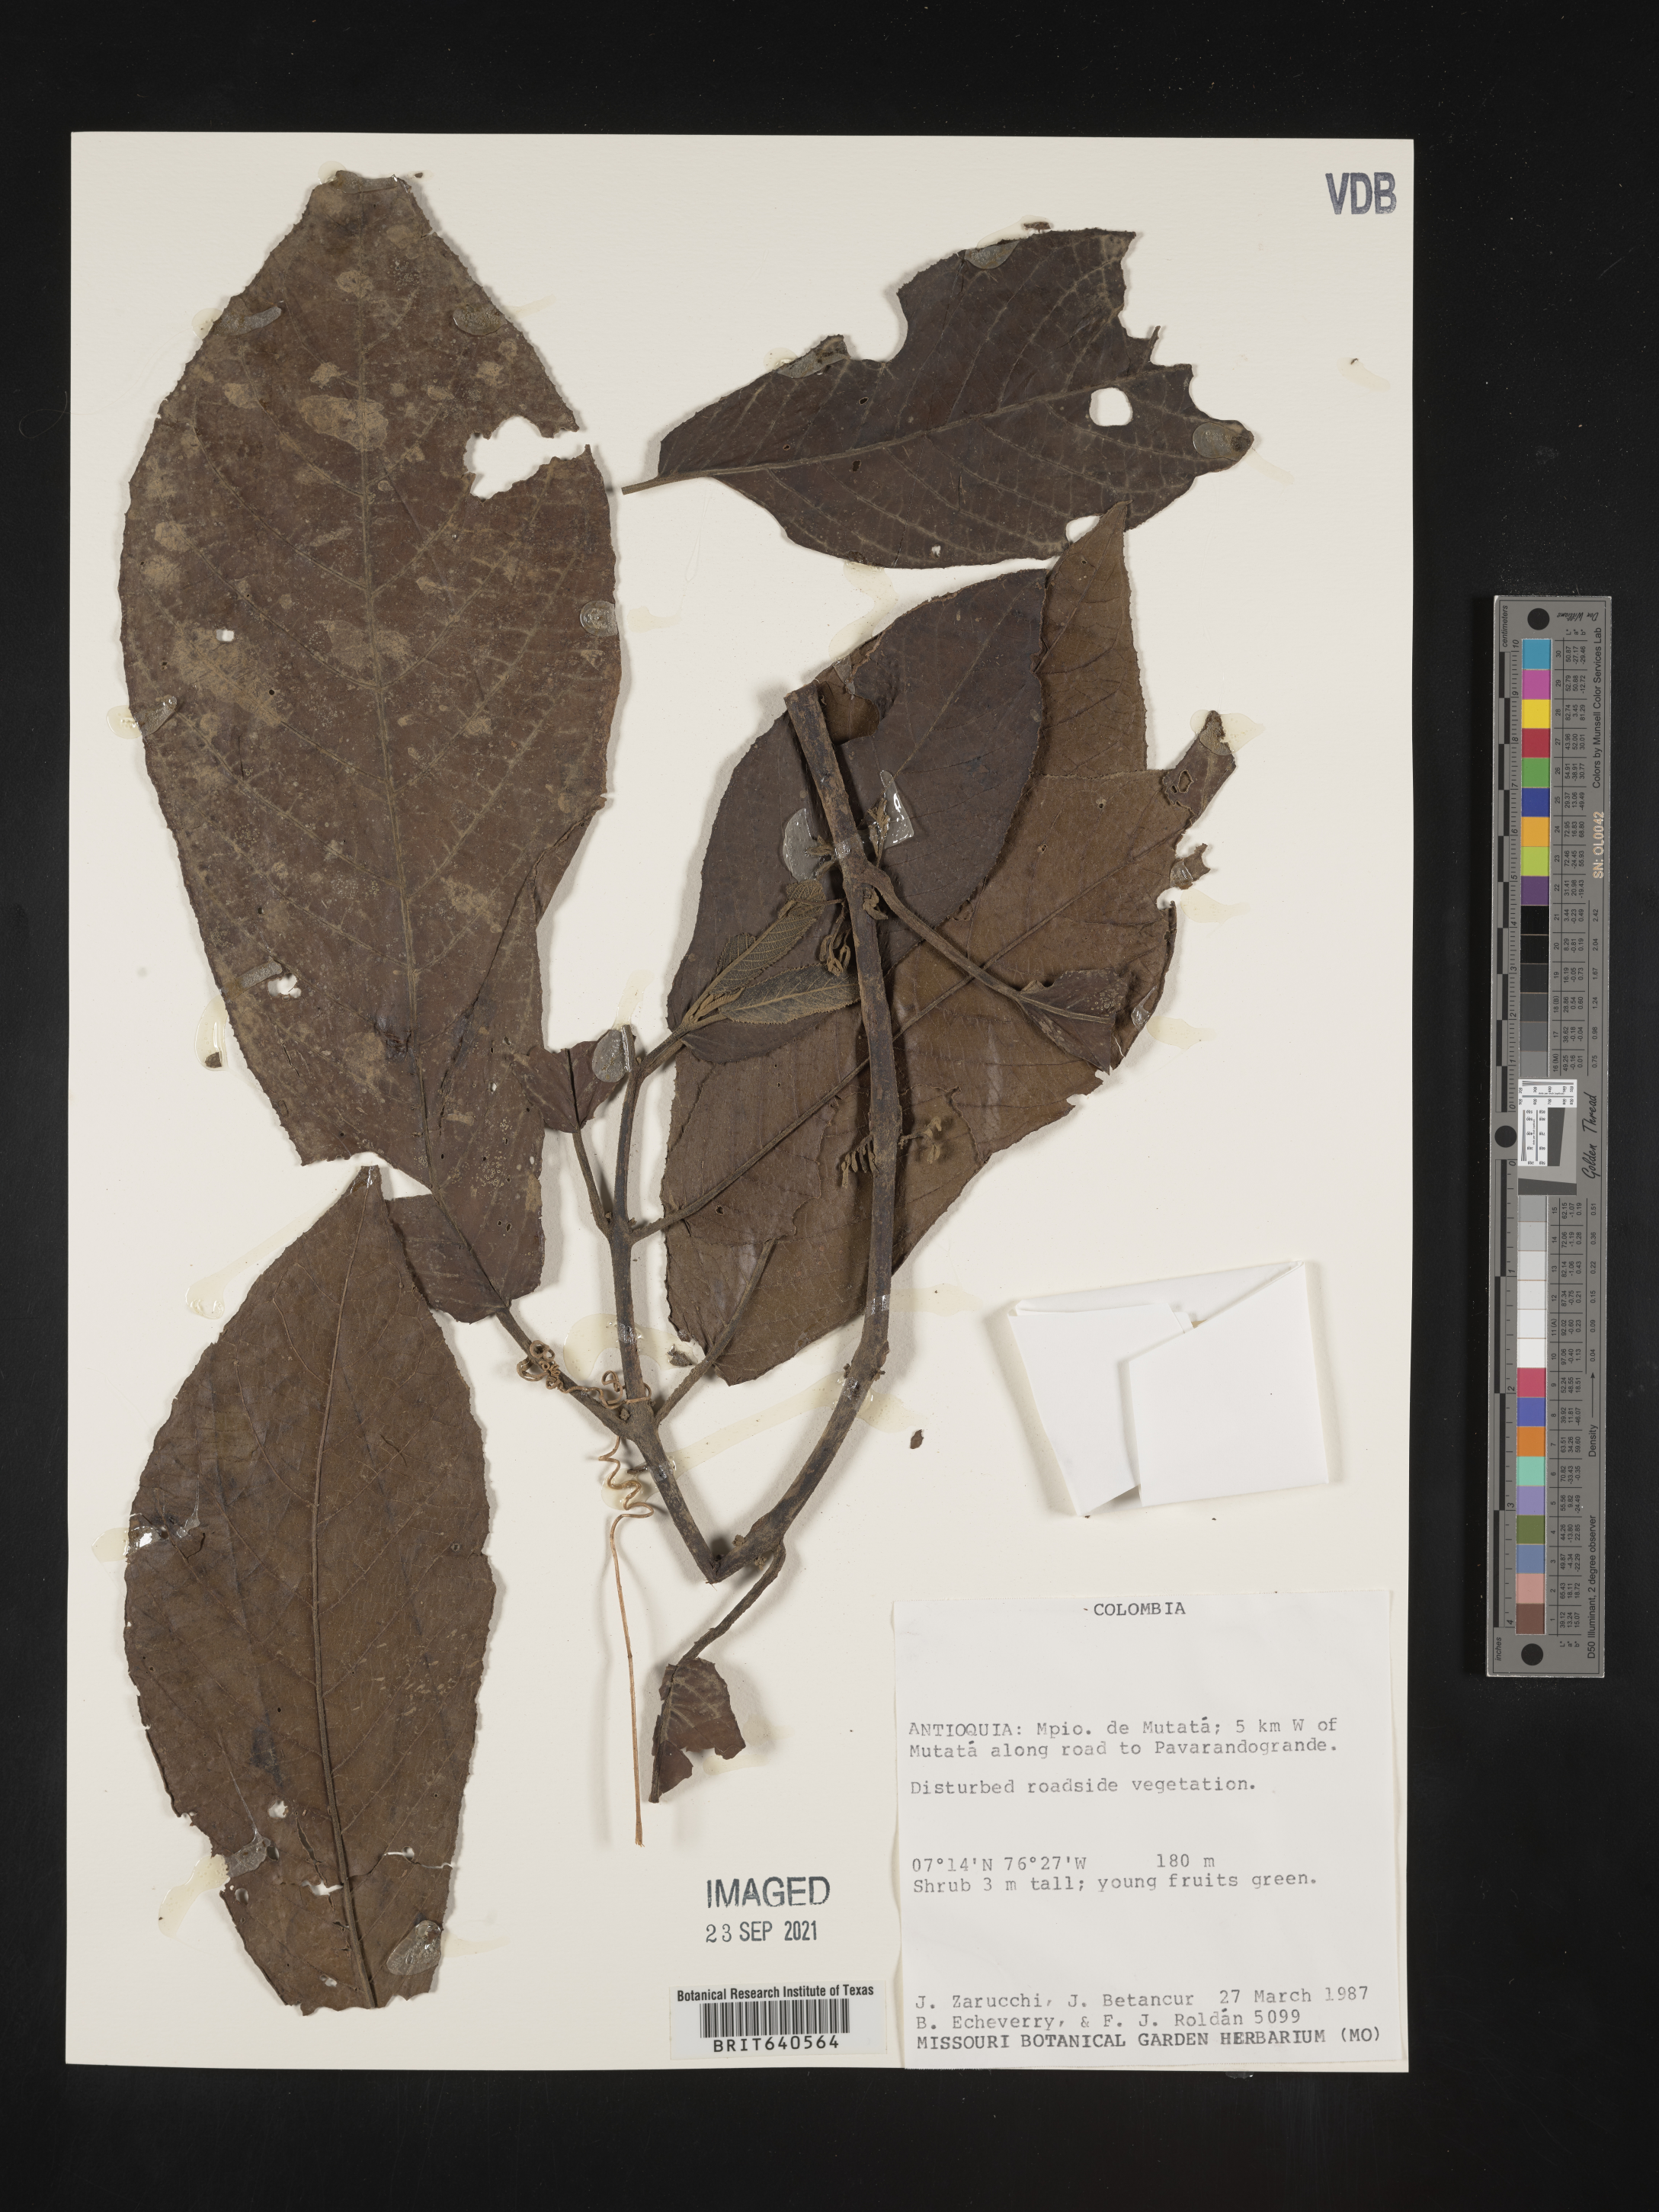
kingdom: Plantae
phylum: Tracheophyta
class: Magnoliopsida
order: Gentianales
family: Rubiaceae
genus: Exostema
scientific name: Exostema
